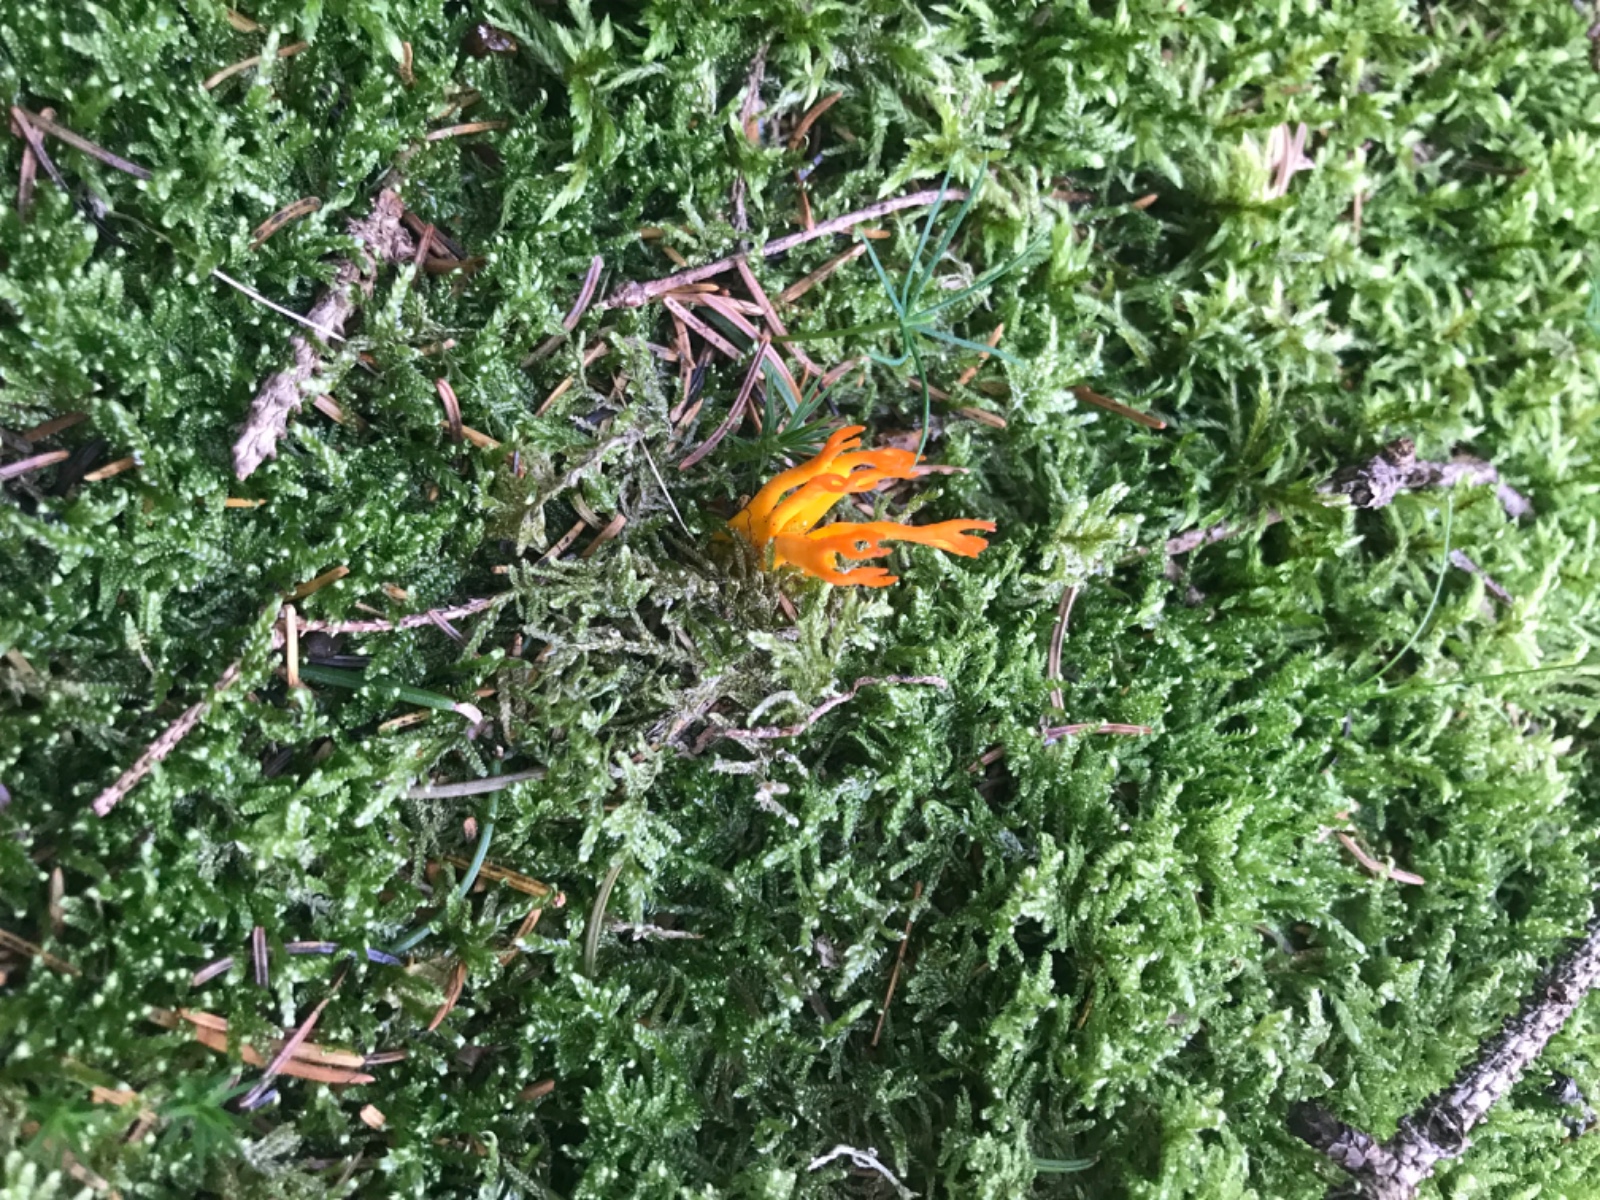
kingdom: Fungi
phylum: Basidiomycota
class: Dacrymycetes
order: Dacrymycetales
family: Dacrymycetaceae
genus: Calocera
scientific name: Calocera viscosa
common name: almindelig guldgaffel
